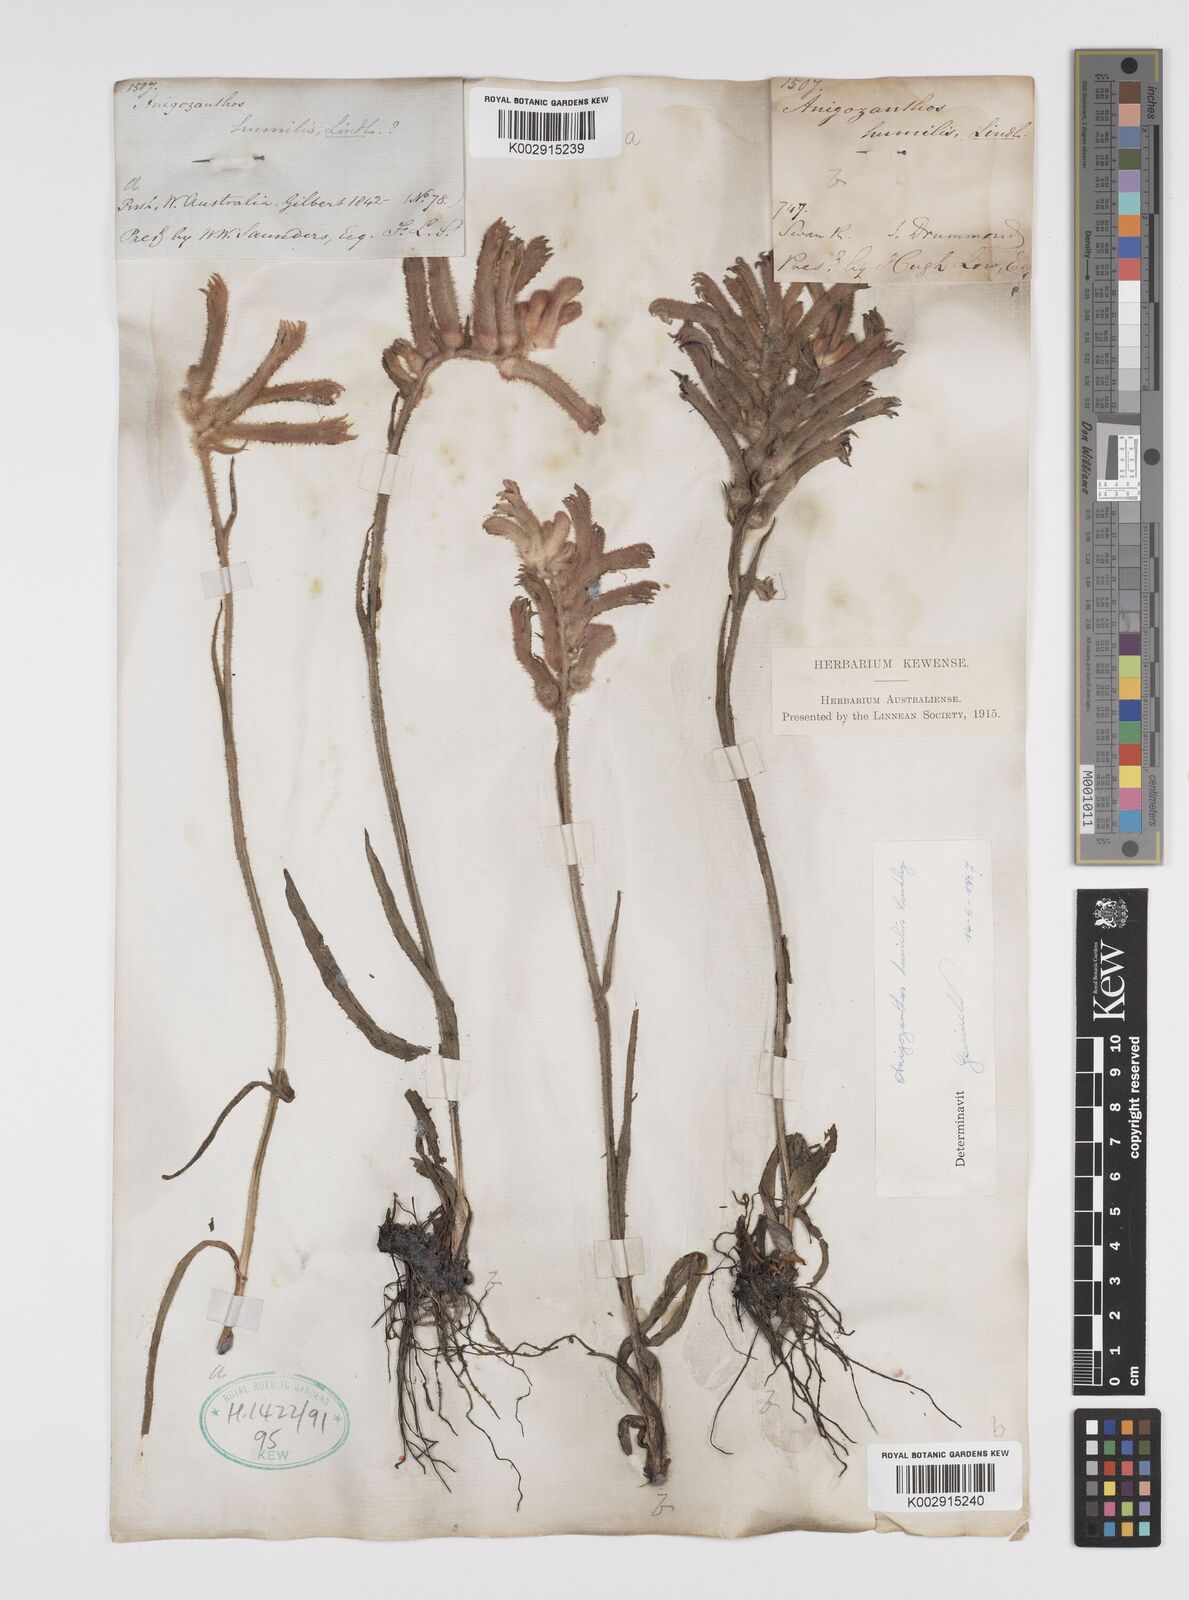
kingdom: Plantae
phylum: Tracheophyta
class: Liliopsida
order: Commelinales
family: Haemodoraceae
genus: Anigozanthos
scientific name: Anigozanthos humilis
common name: Cat's-paw
